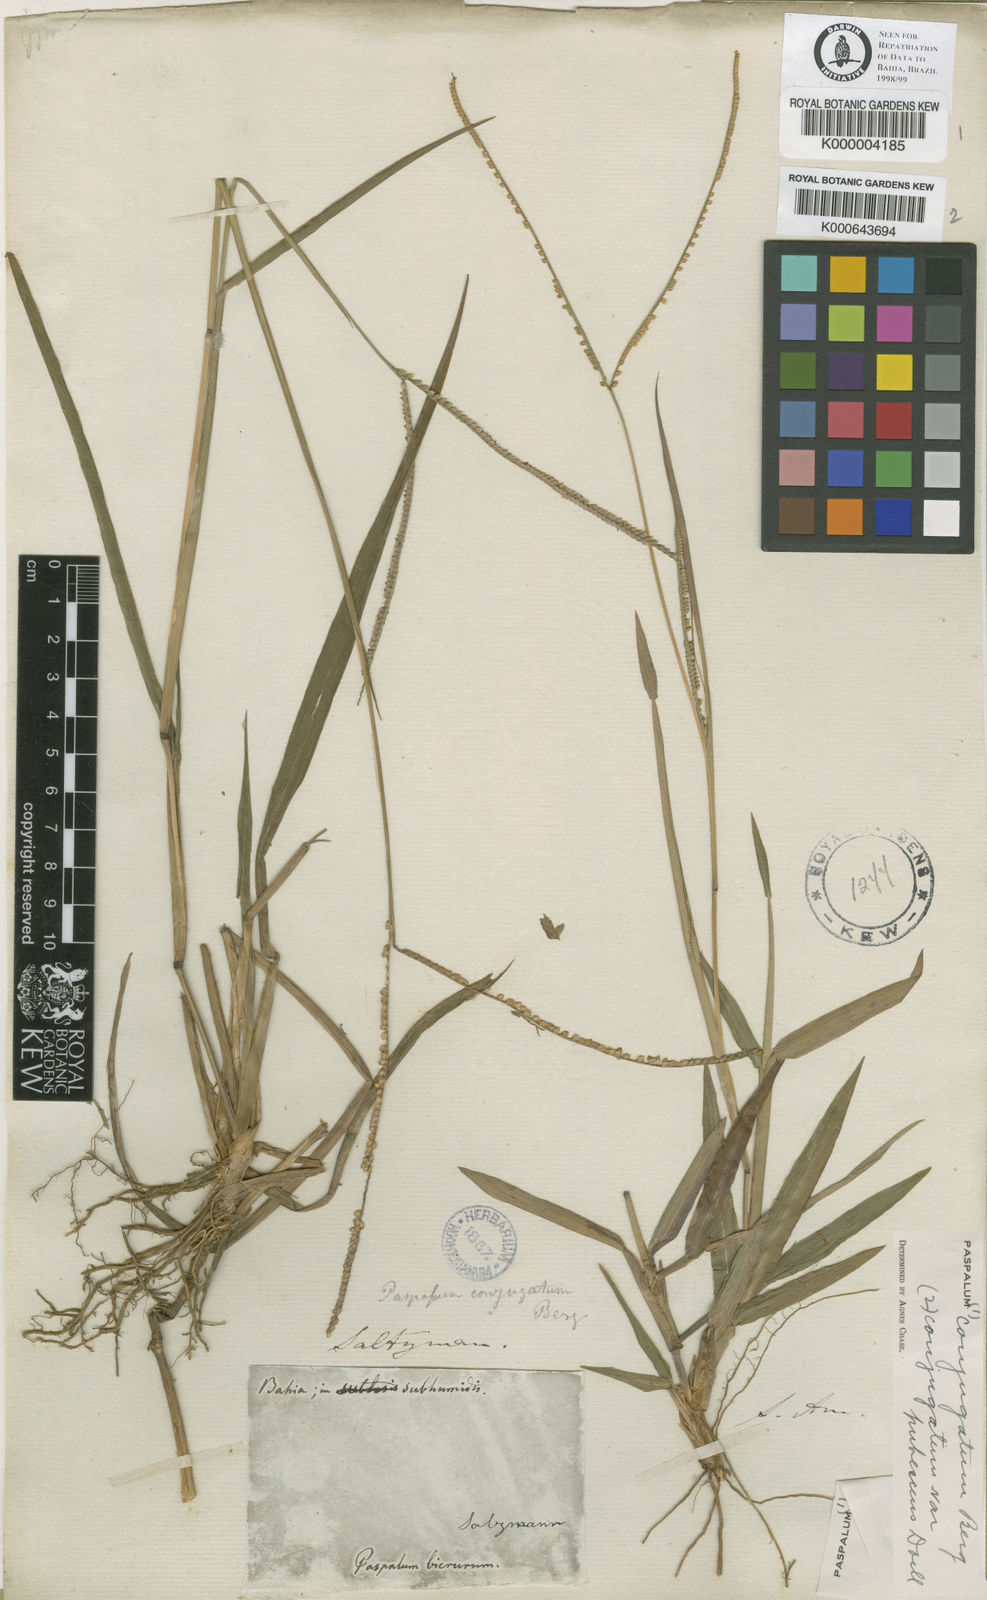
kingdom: Plantae
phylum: Tracheophyta
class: Liliopsida
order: Poales
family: Poaceae
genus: Paspalum
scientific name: Paspalum conjugatum
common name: Hilograss
